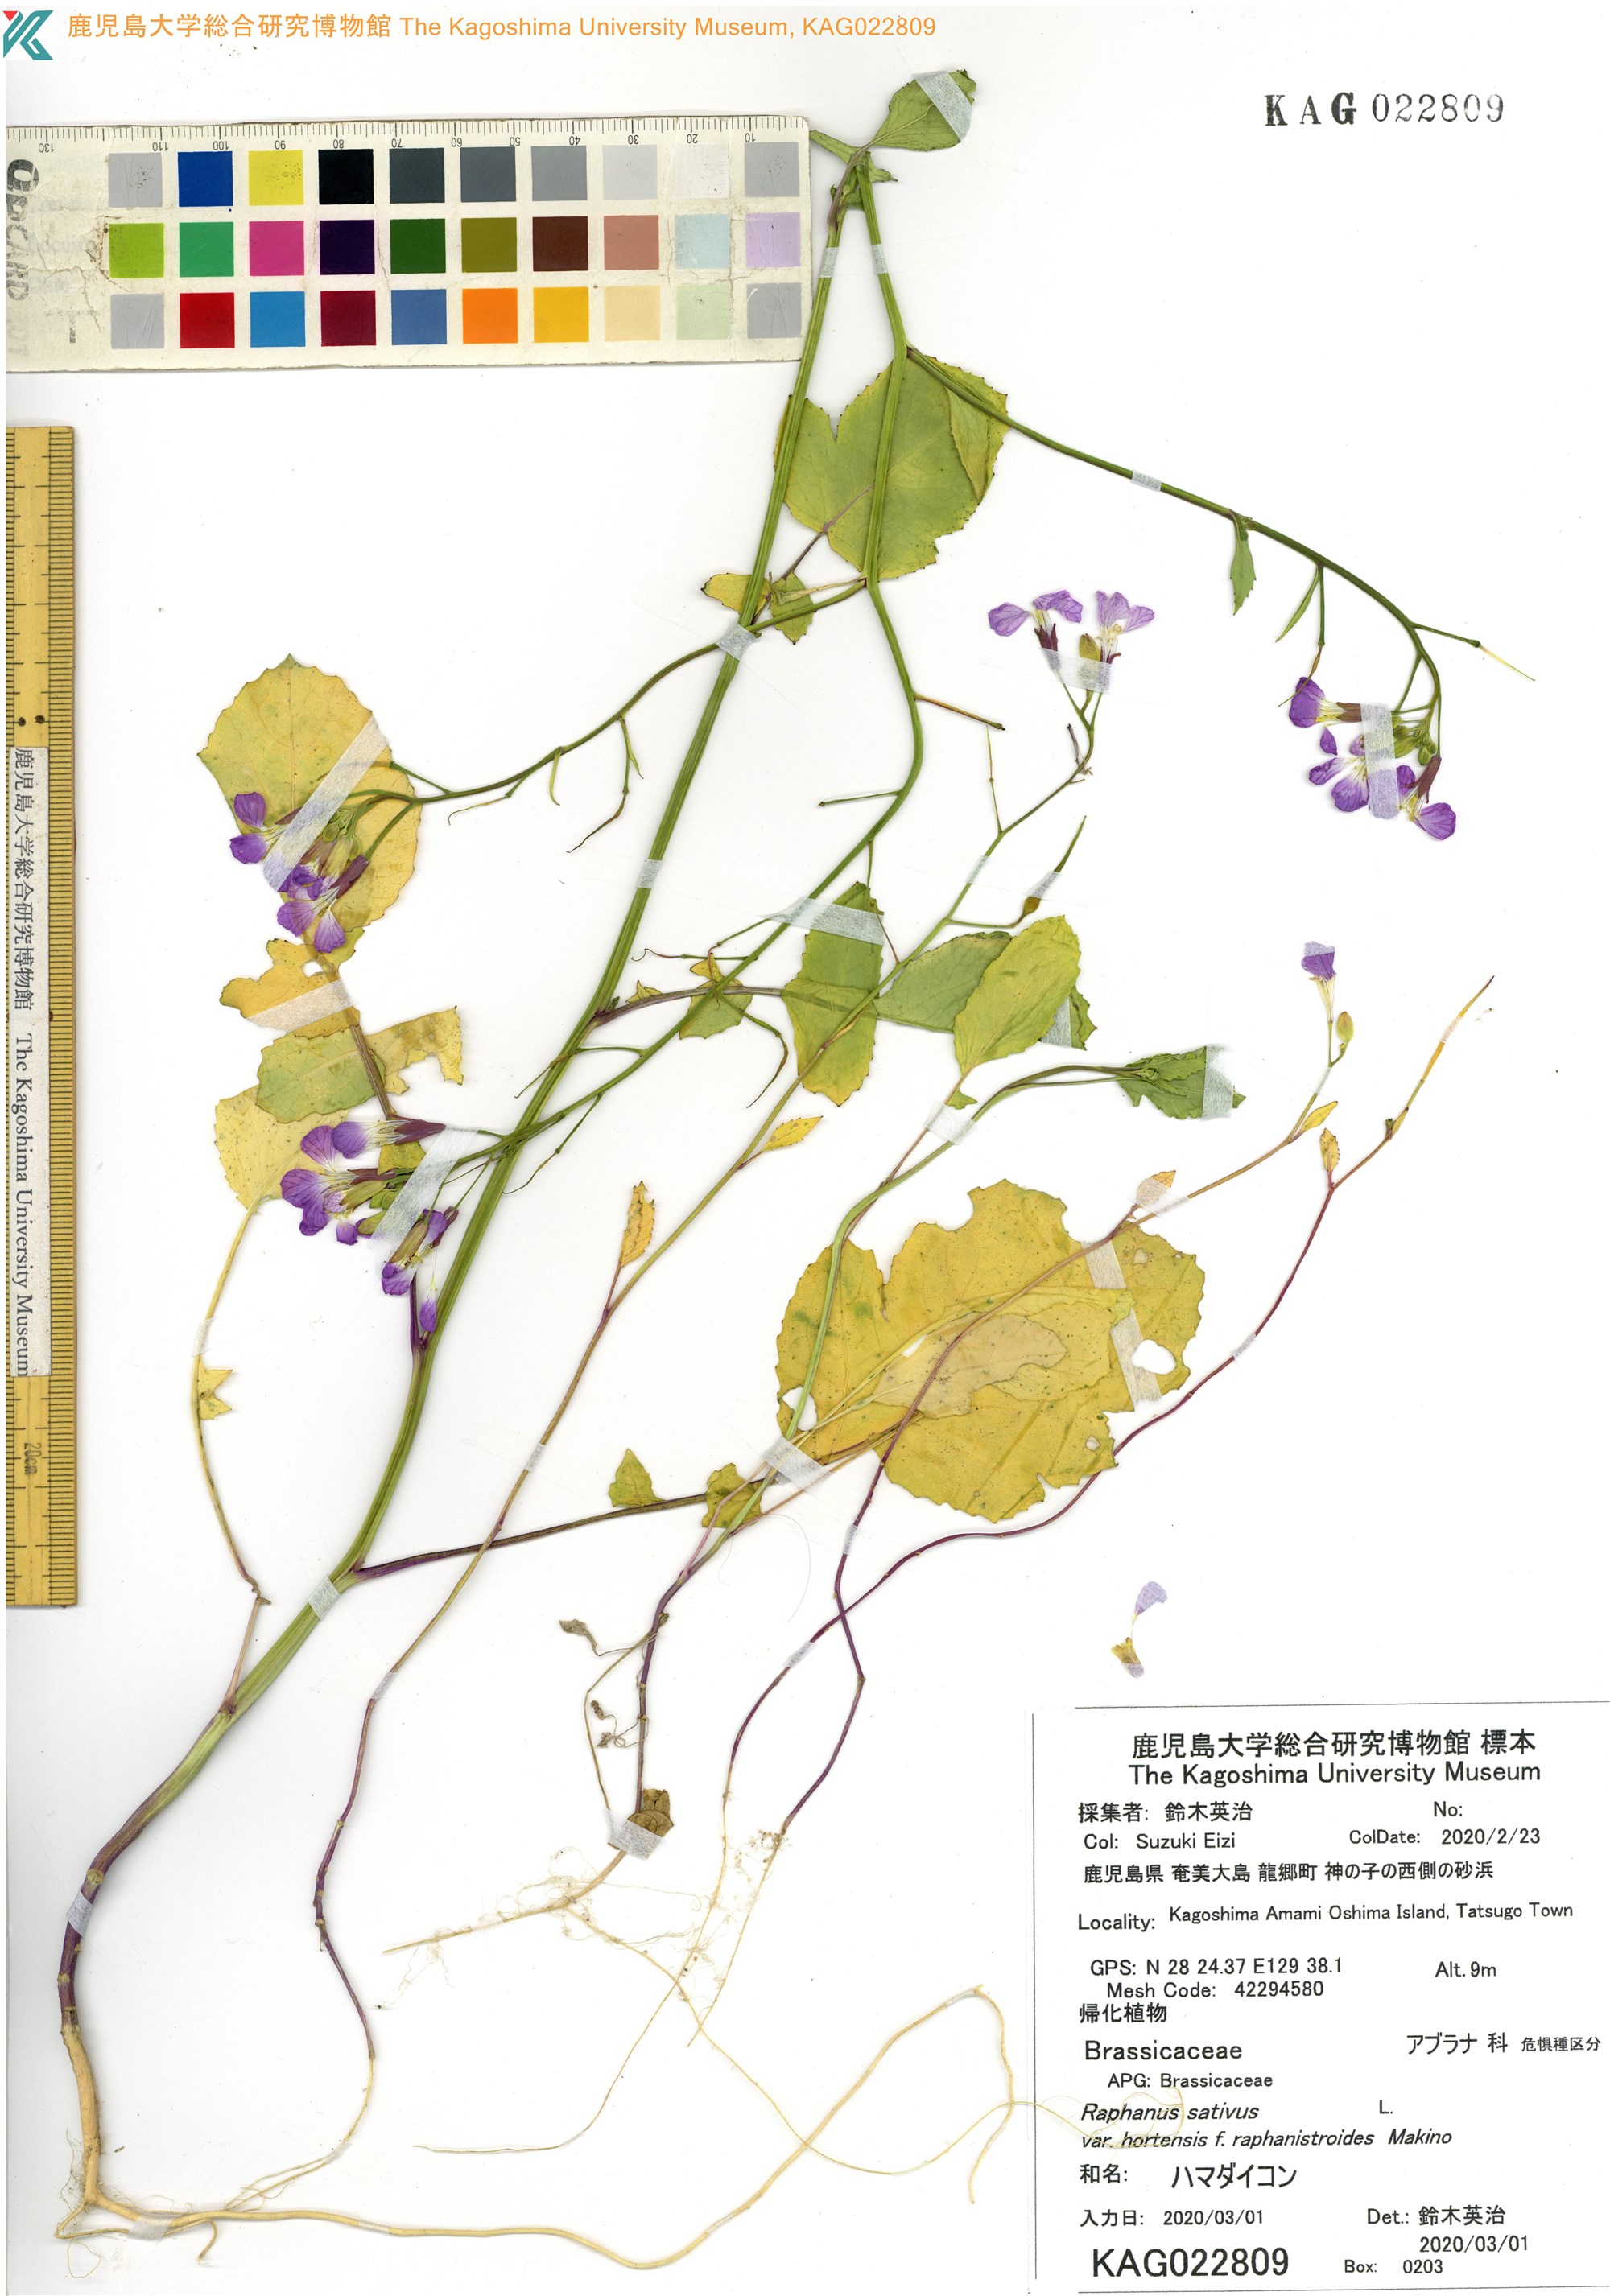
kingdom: Plantae
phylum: Tracheophyta
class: Magnoliopsida
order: Brassicales
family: Brassicaceae
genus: Raphanus
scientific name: Raphanus sativus
